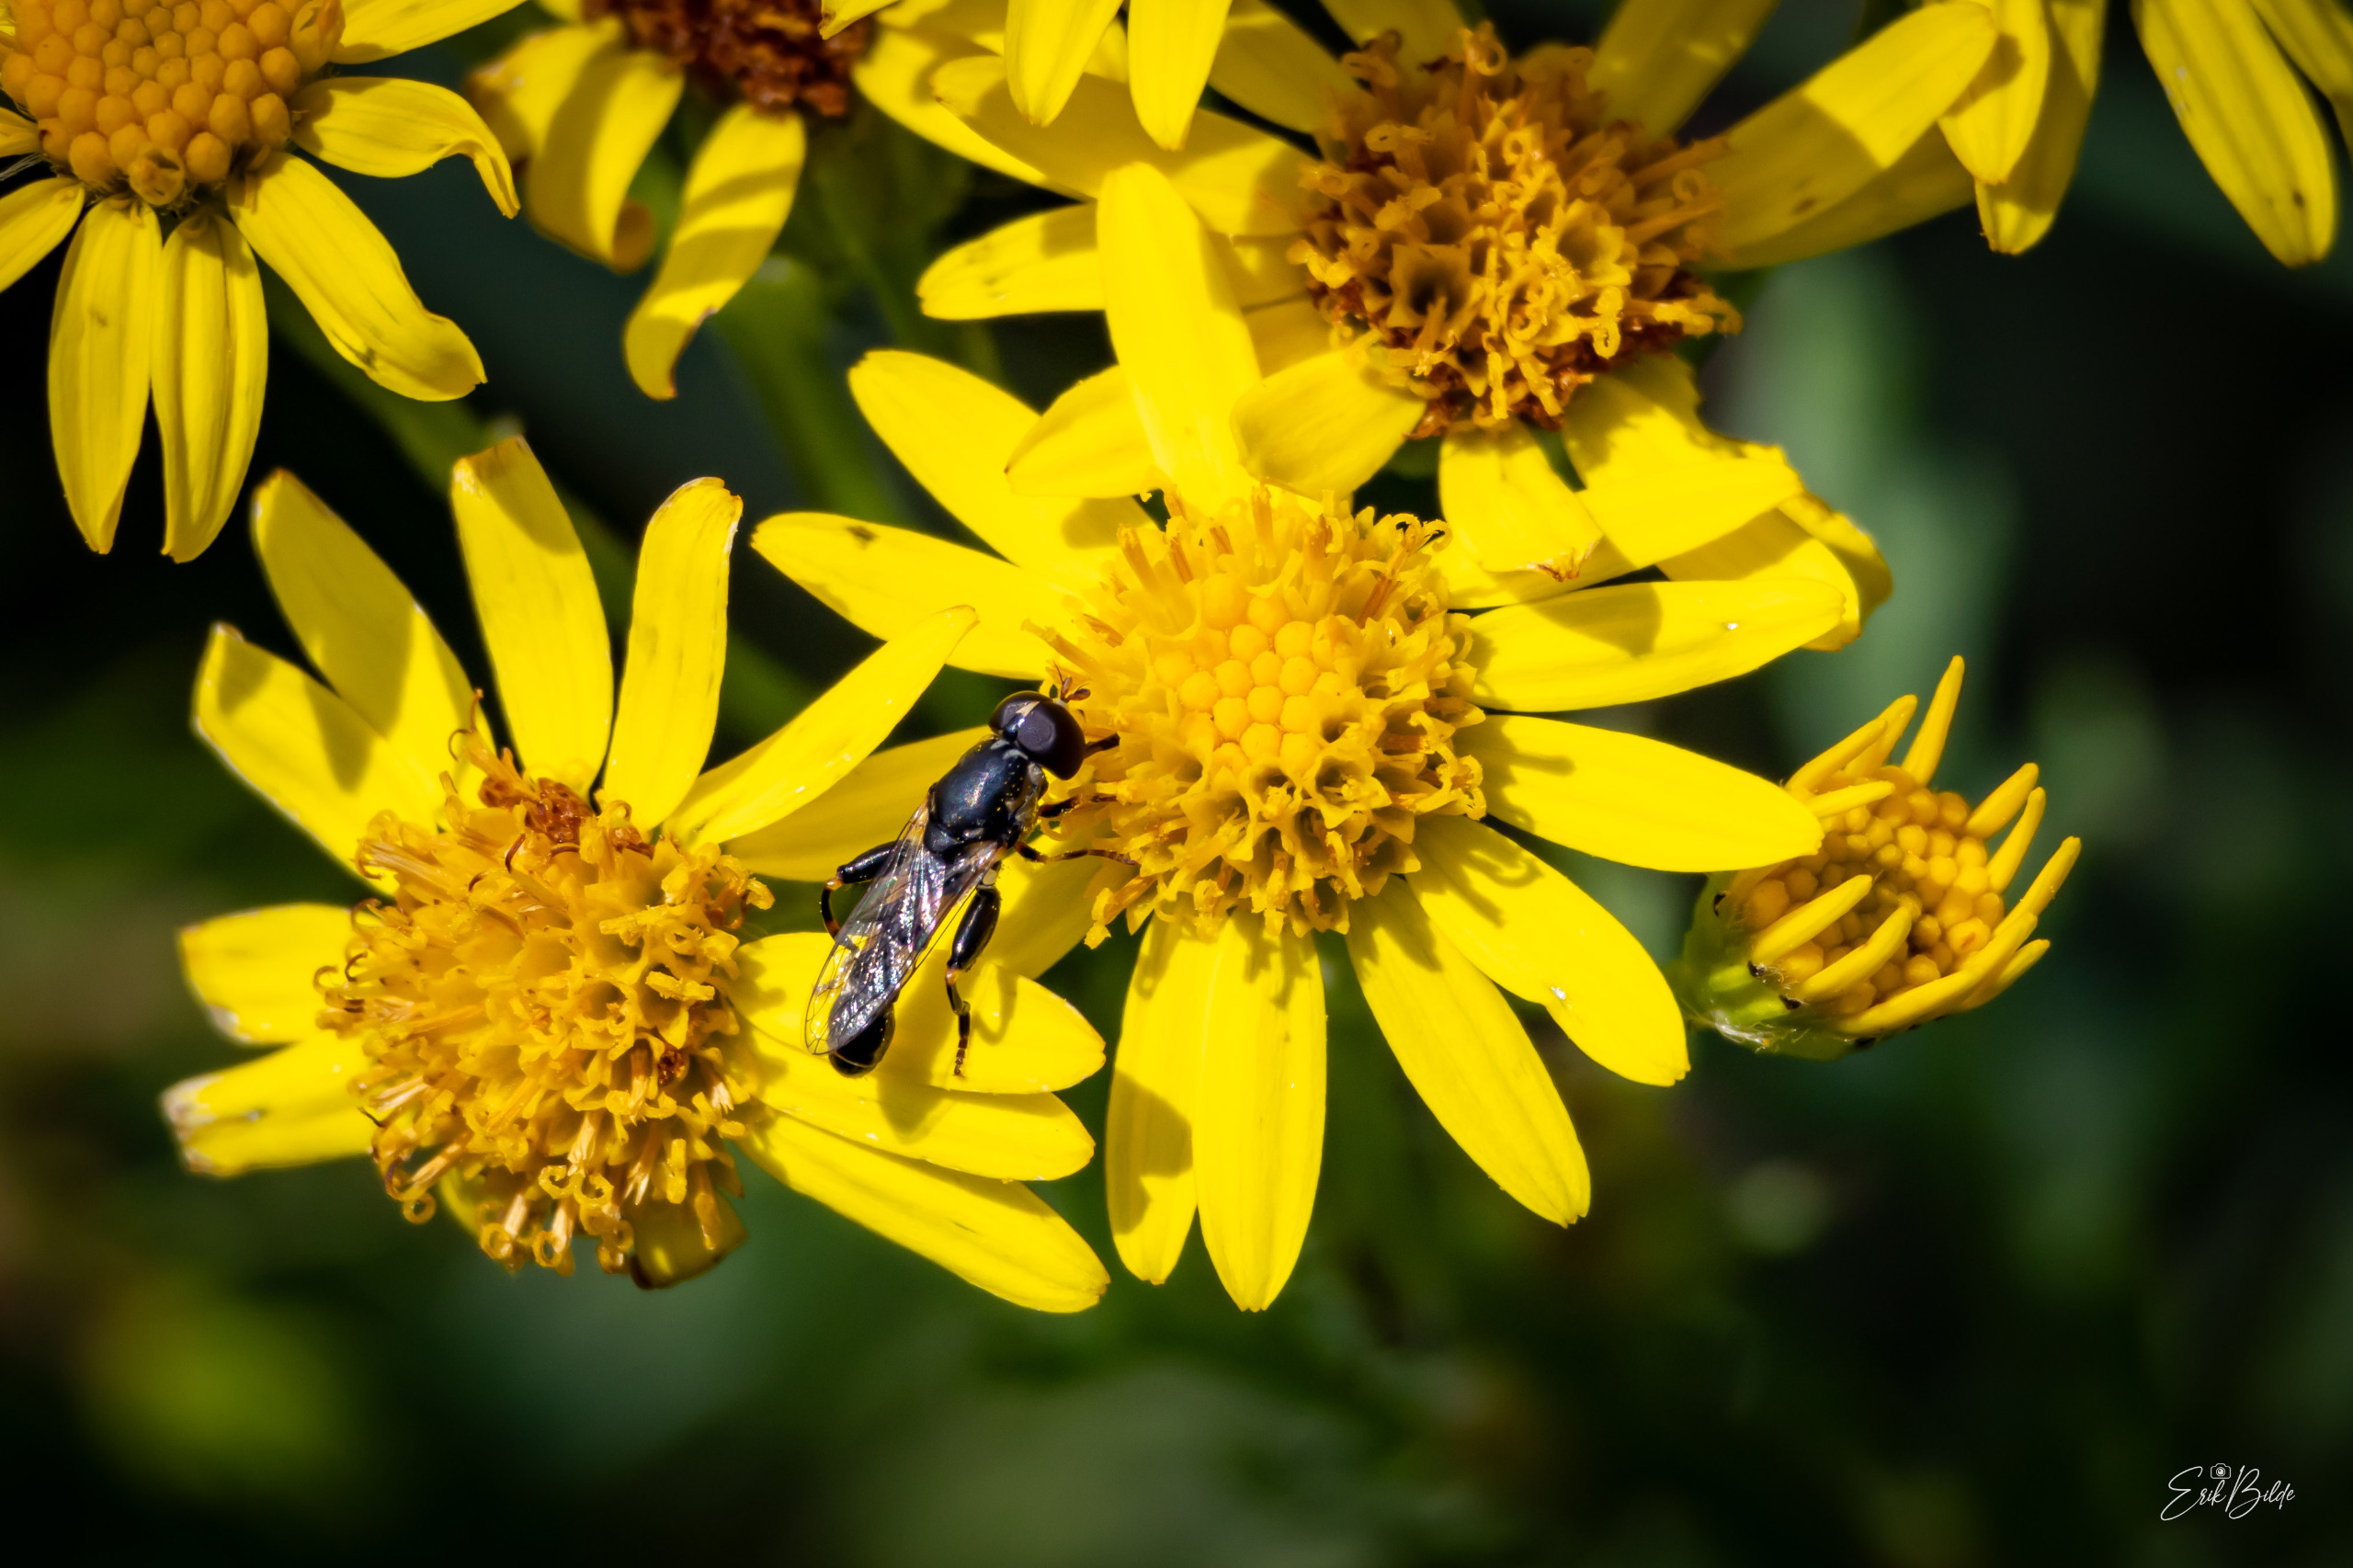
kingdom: Animalia
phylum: Arthropoda
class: Insecta
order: Diptera
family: Syrphidae
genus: Syritta
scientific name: Syritta pipiens
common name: Kompost-svirreflue
